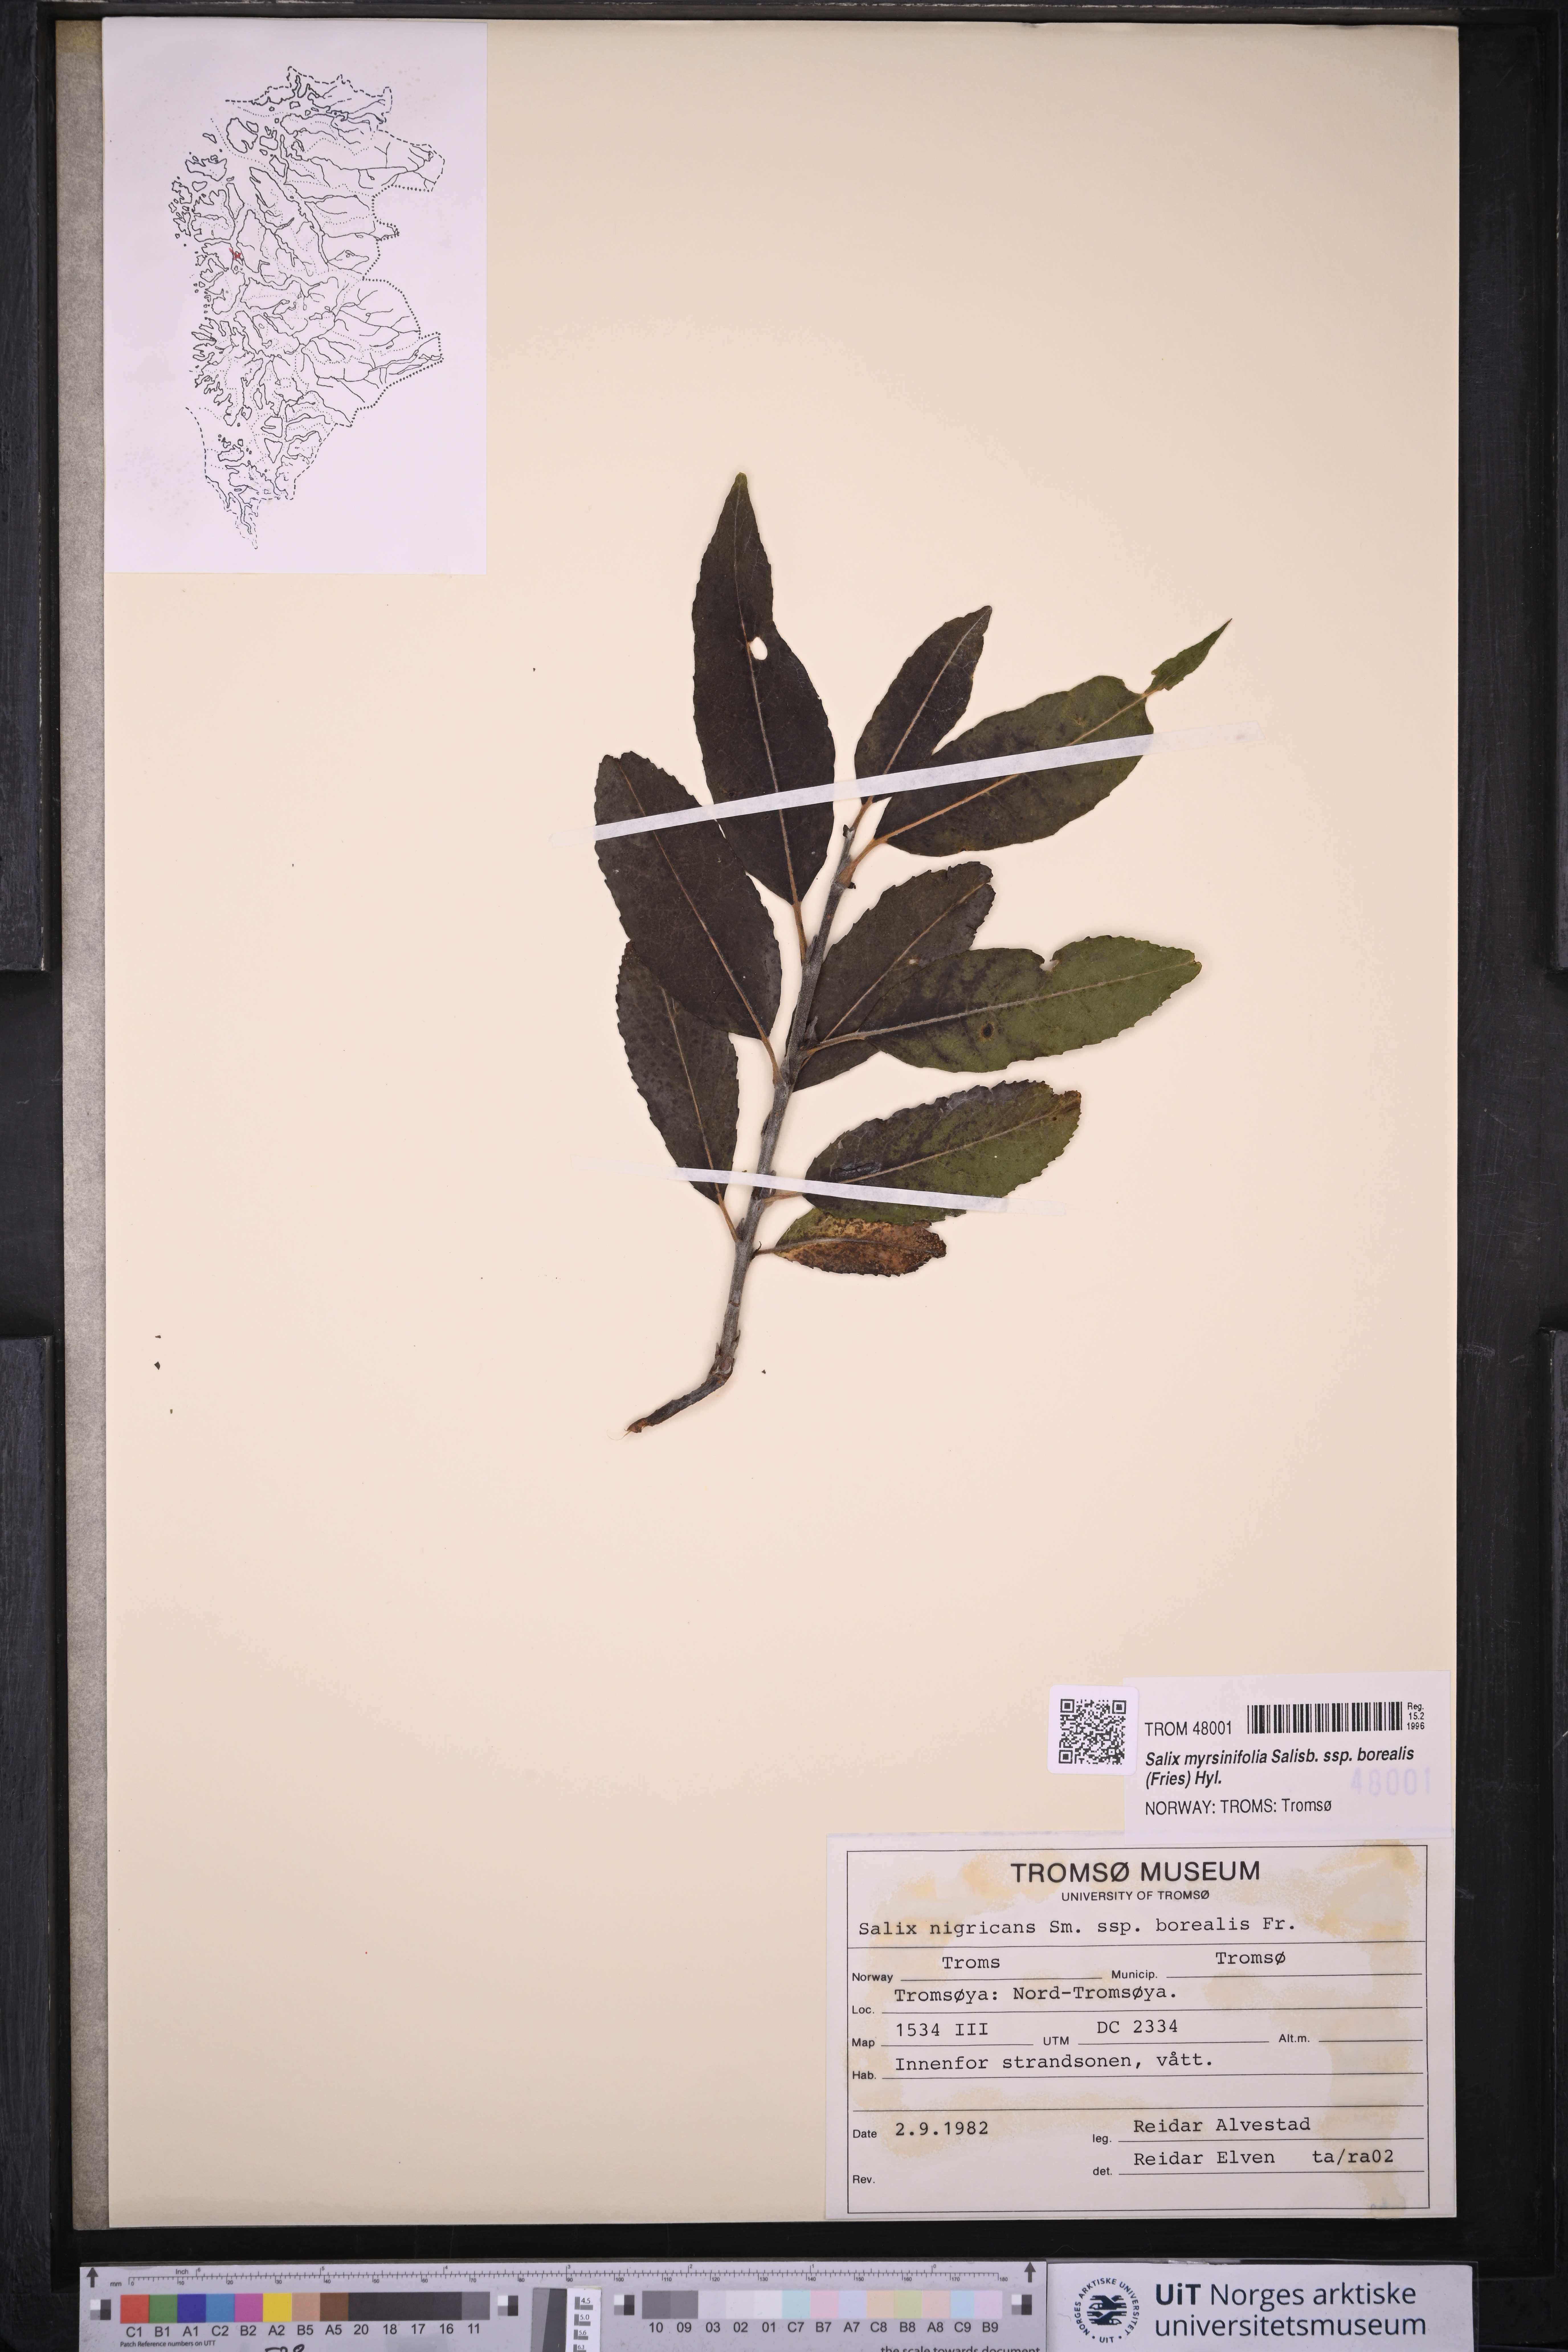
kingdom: Plantae
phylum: Tracheophyta
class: Magnoliopsida
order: Malpighiales
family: Salicaceae
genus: Salix
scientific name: Salix myrsinifolia
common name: Dark-leaved willow
